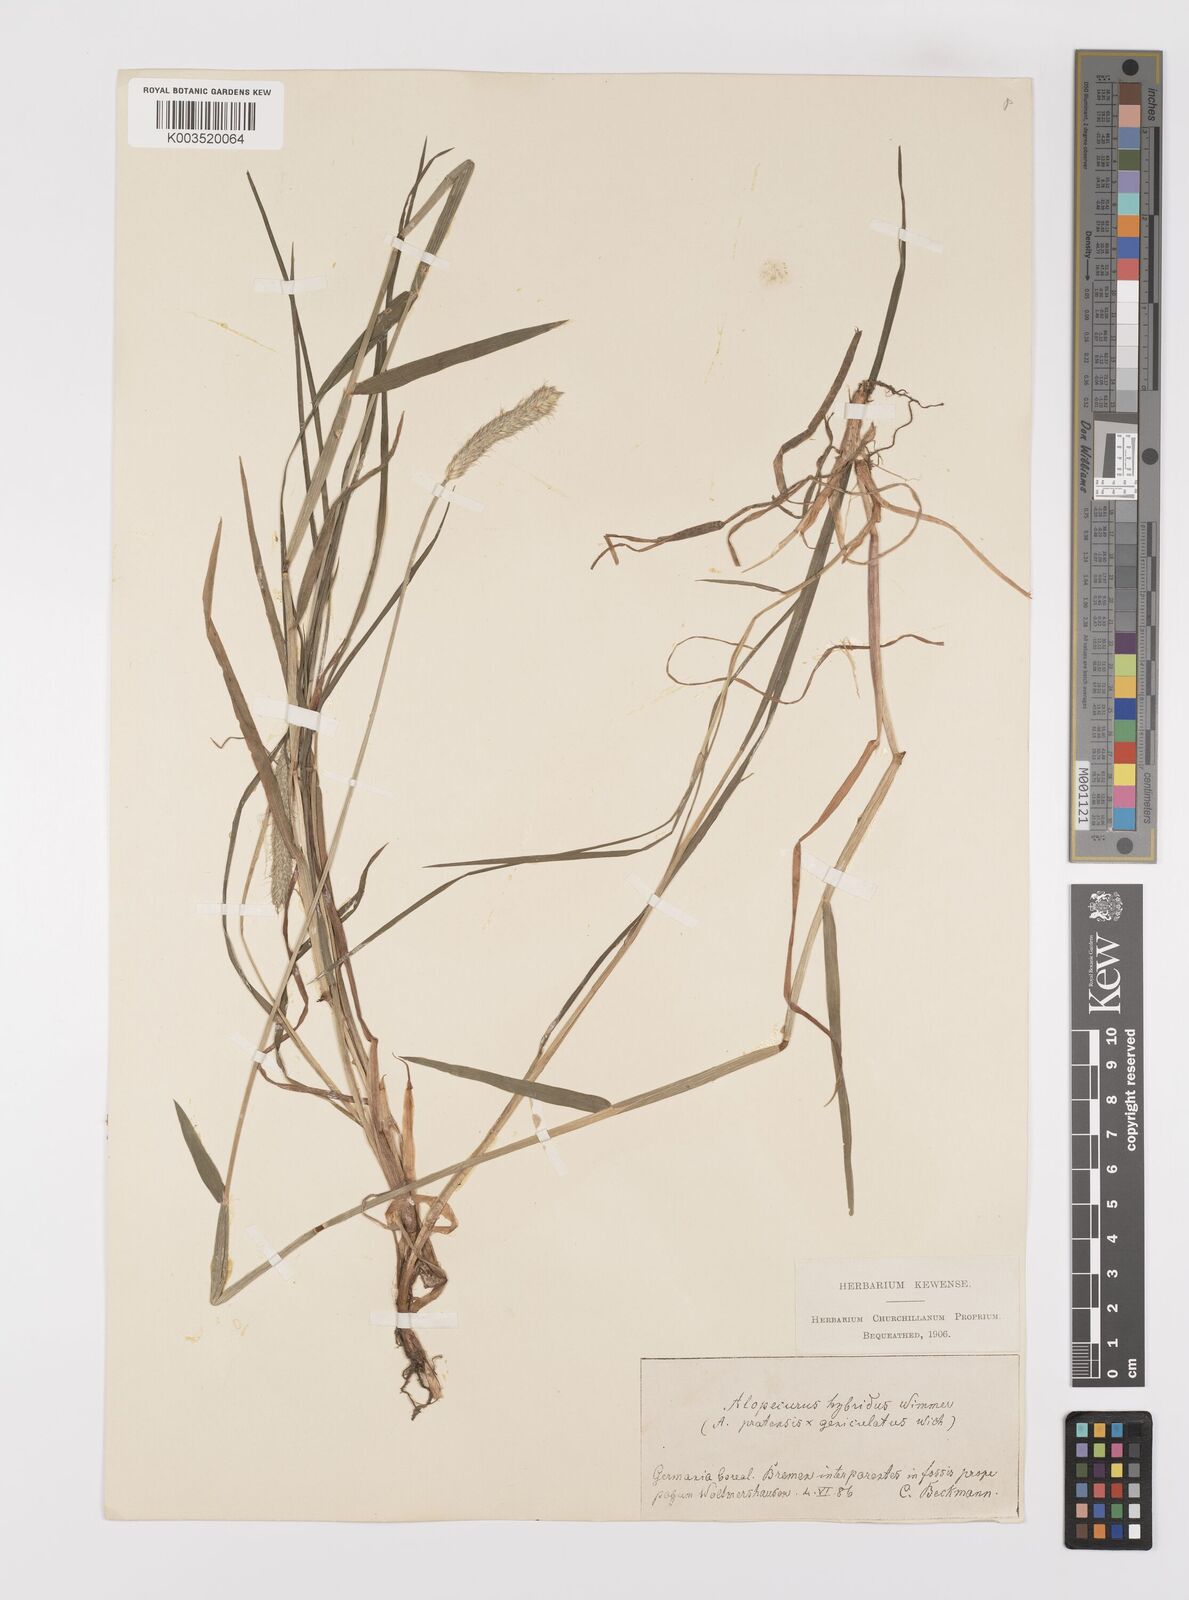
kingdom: Plantae
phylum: Tracheophyta
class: Liliopsida
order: Poales
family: Poaceae
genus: Alopecurus
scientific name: Alopecurus brachystylus
